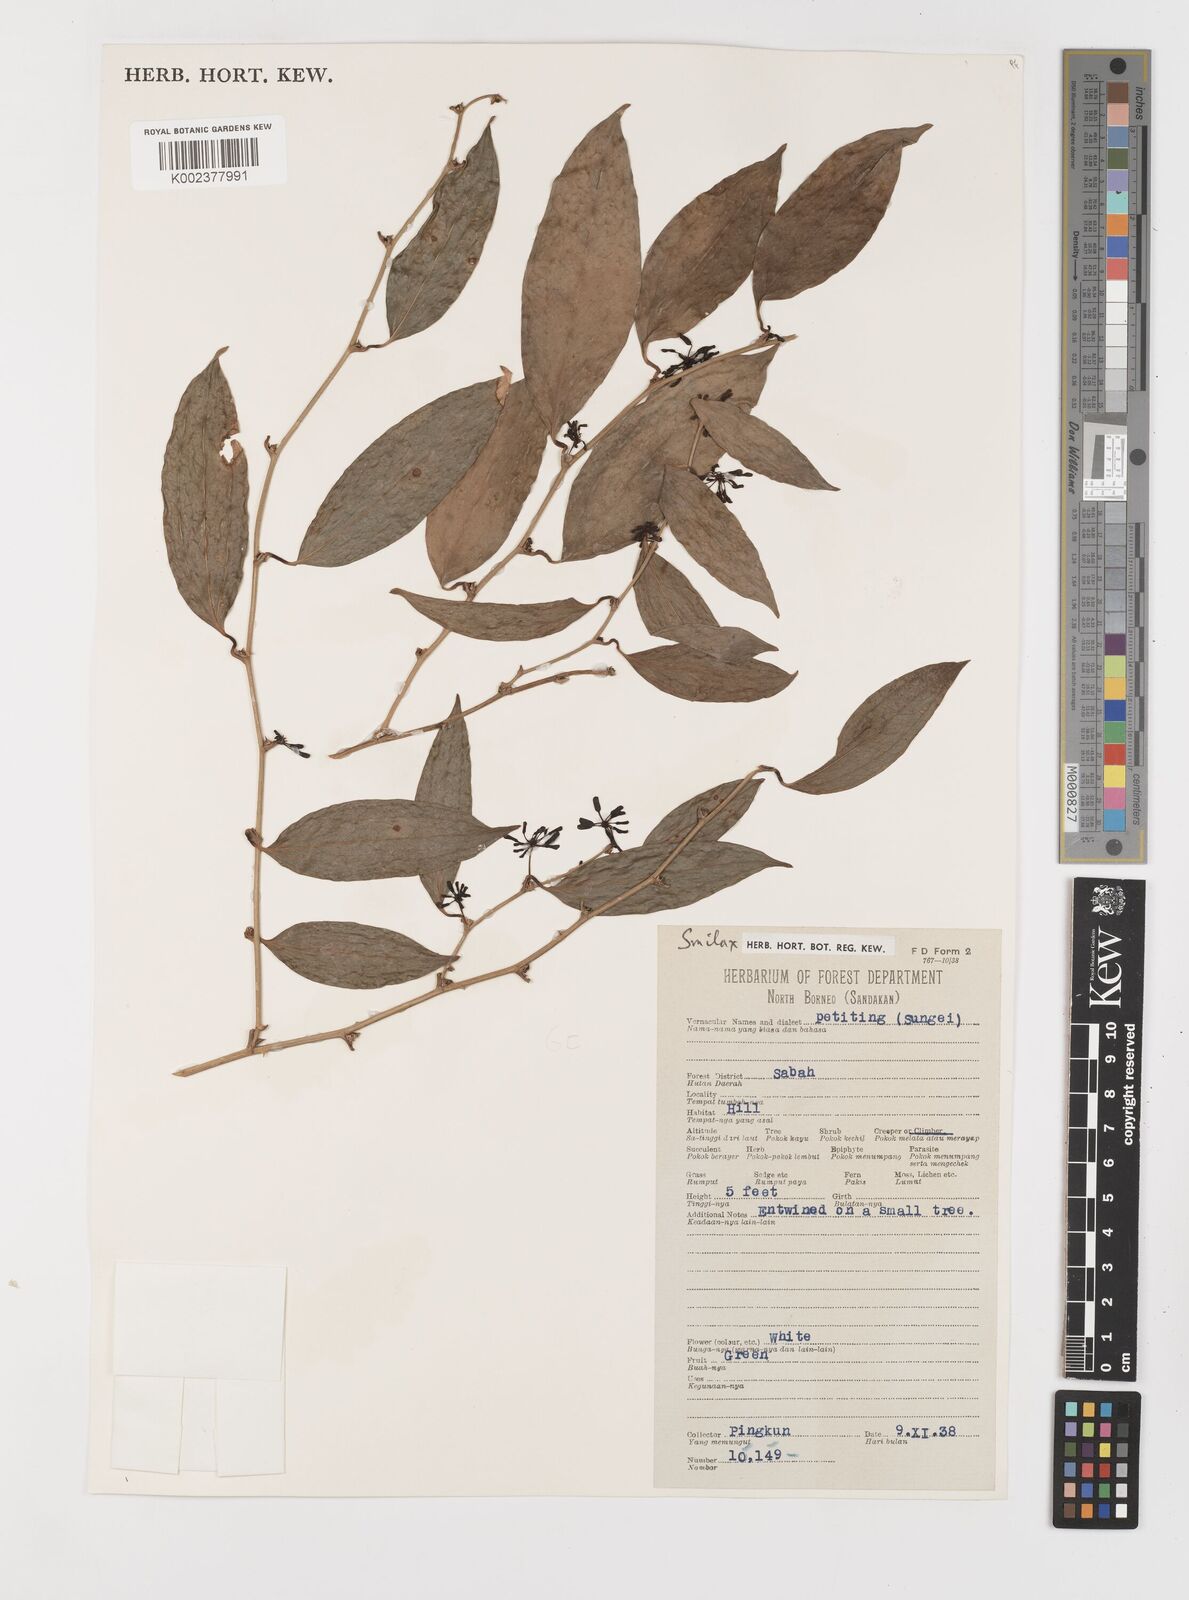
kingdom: Plantae
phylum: Tracheophyta
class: Liliopsida
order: Liliales
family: Smilacaceae
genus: Smilax
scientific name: Smilax
